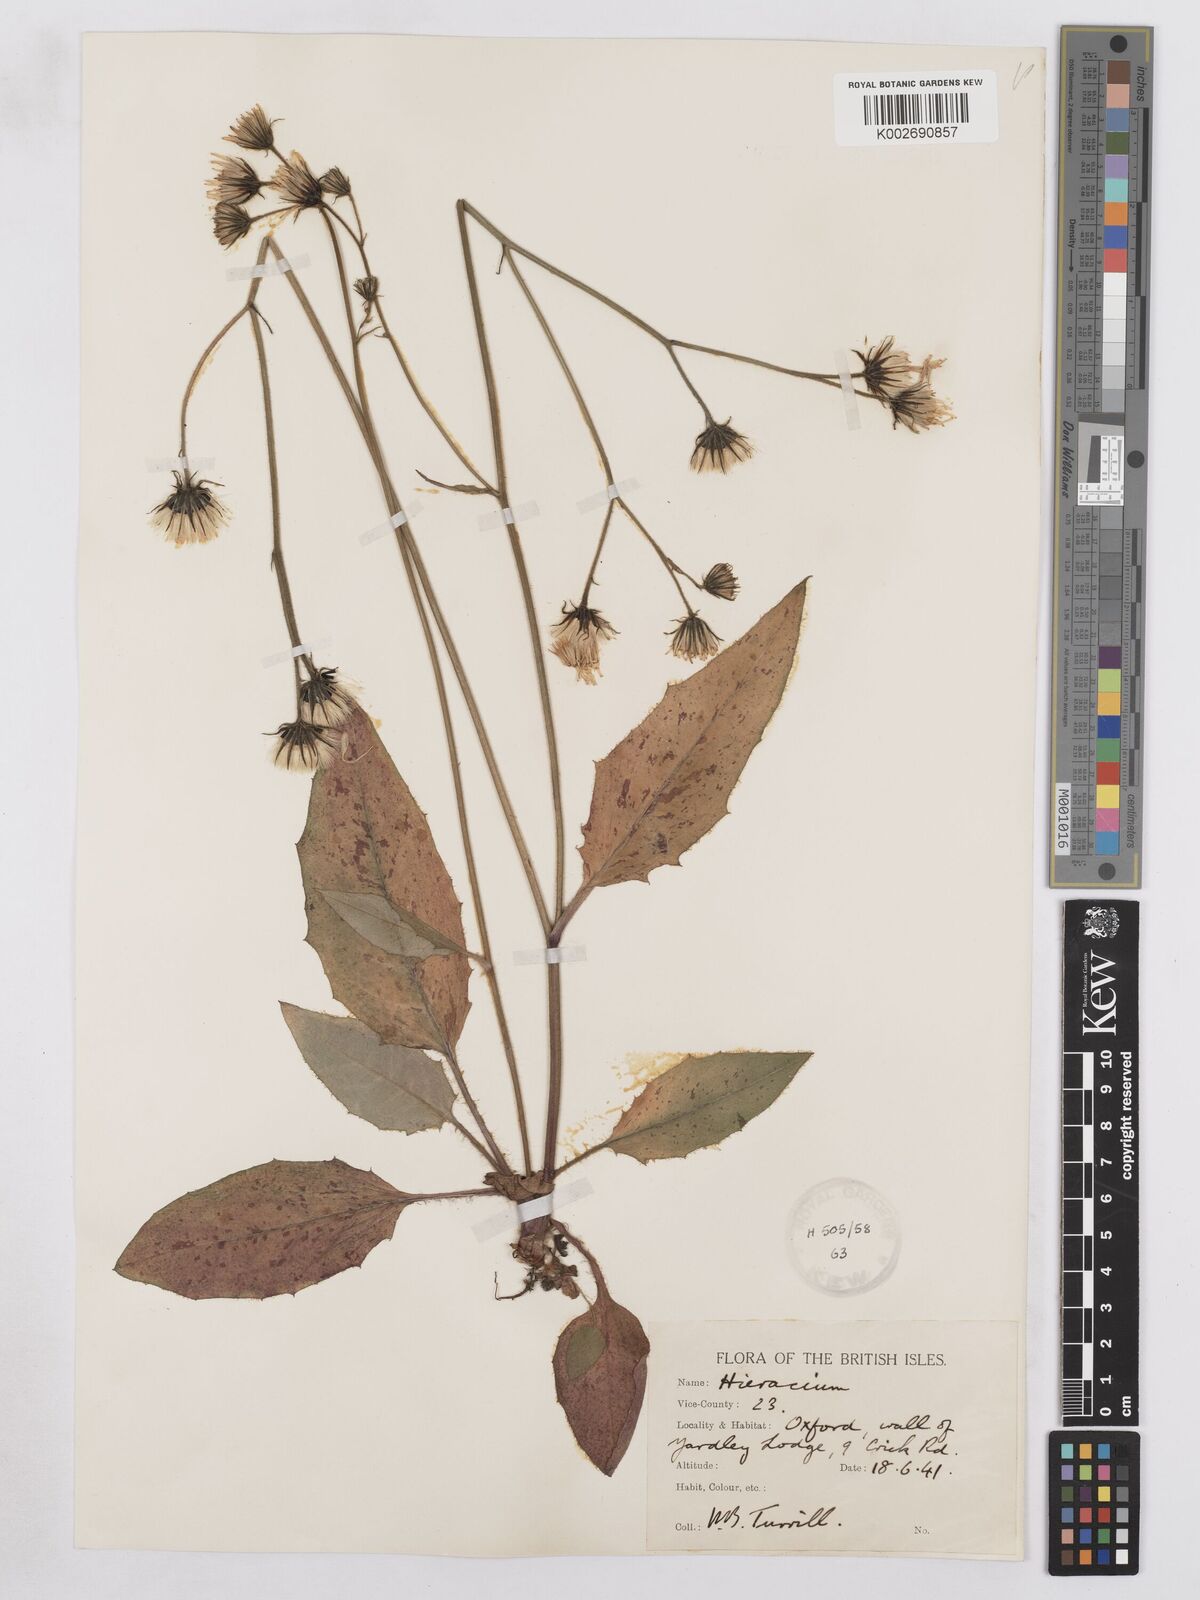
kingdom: Plantae
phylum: Tracheophyta
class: Magnoliopsida
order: Asterales
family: Asteraceae
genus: Hieracium
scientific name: Hieracium murorum
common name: Wall hawkweed
